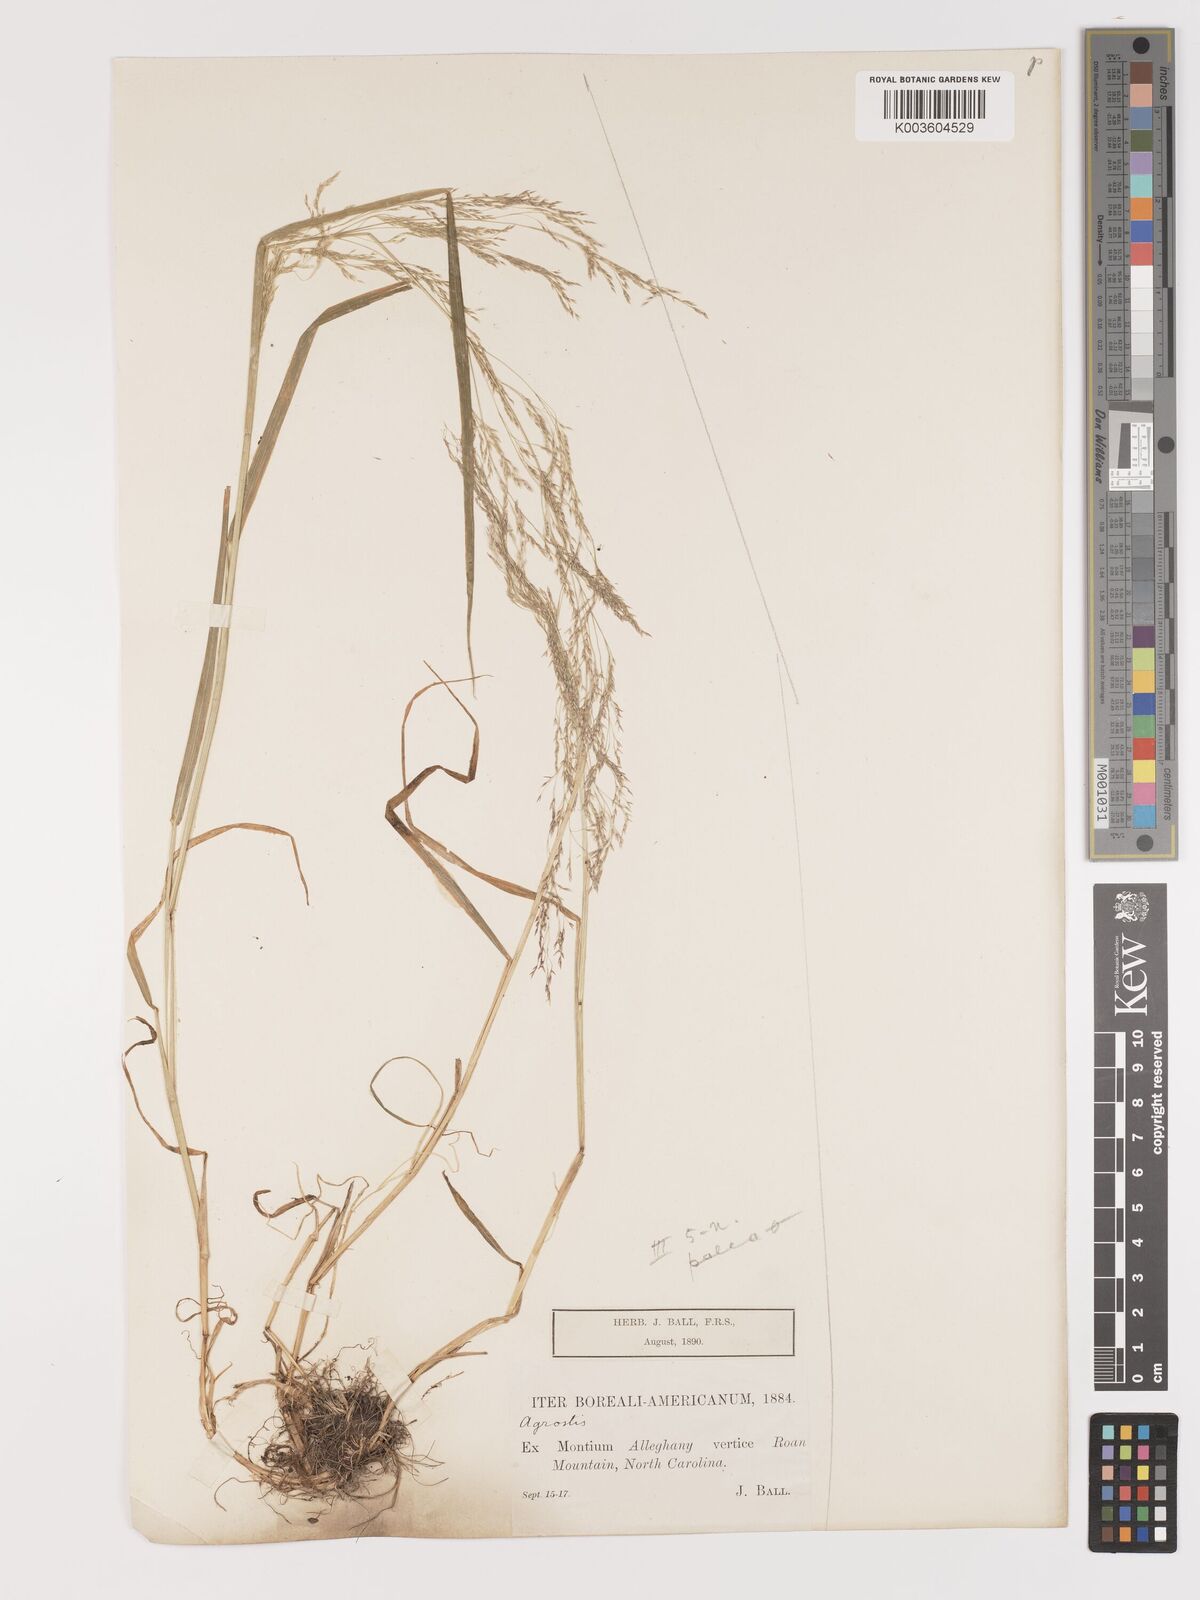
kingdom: Plantae
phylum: Tracheophyta
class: Liliopsida
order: Poales
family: Poaceae
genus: Agrostis
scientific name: Agrostis hyemalis
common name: Small bent
